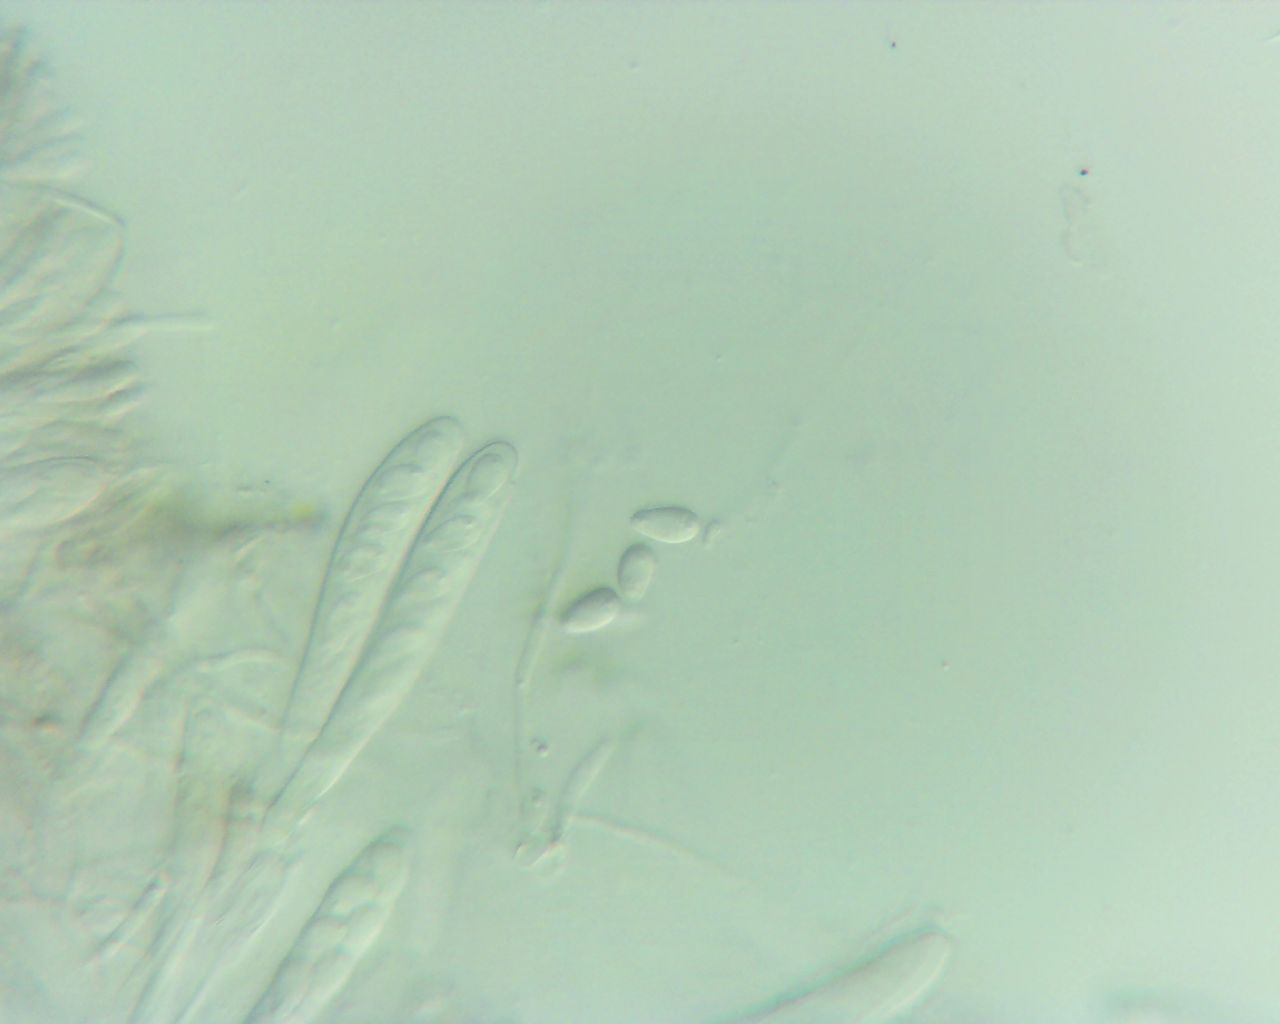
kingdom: Fungi
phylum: Ascomycota
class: Leotiomycetes
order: Helotiales
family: Drepanopezizaceae
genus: Pseudopeziza
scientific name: Pseudopeziza trifolii
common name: kløver-bladskive
